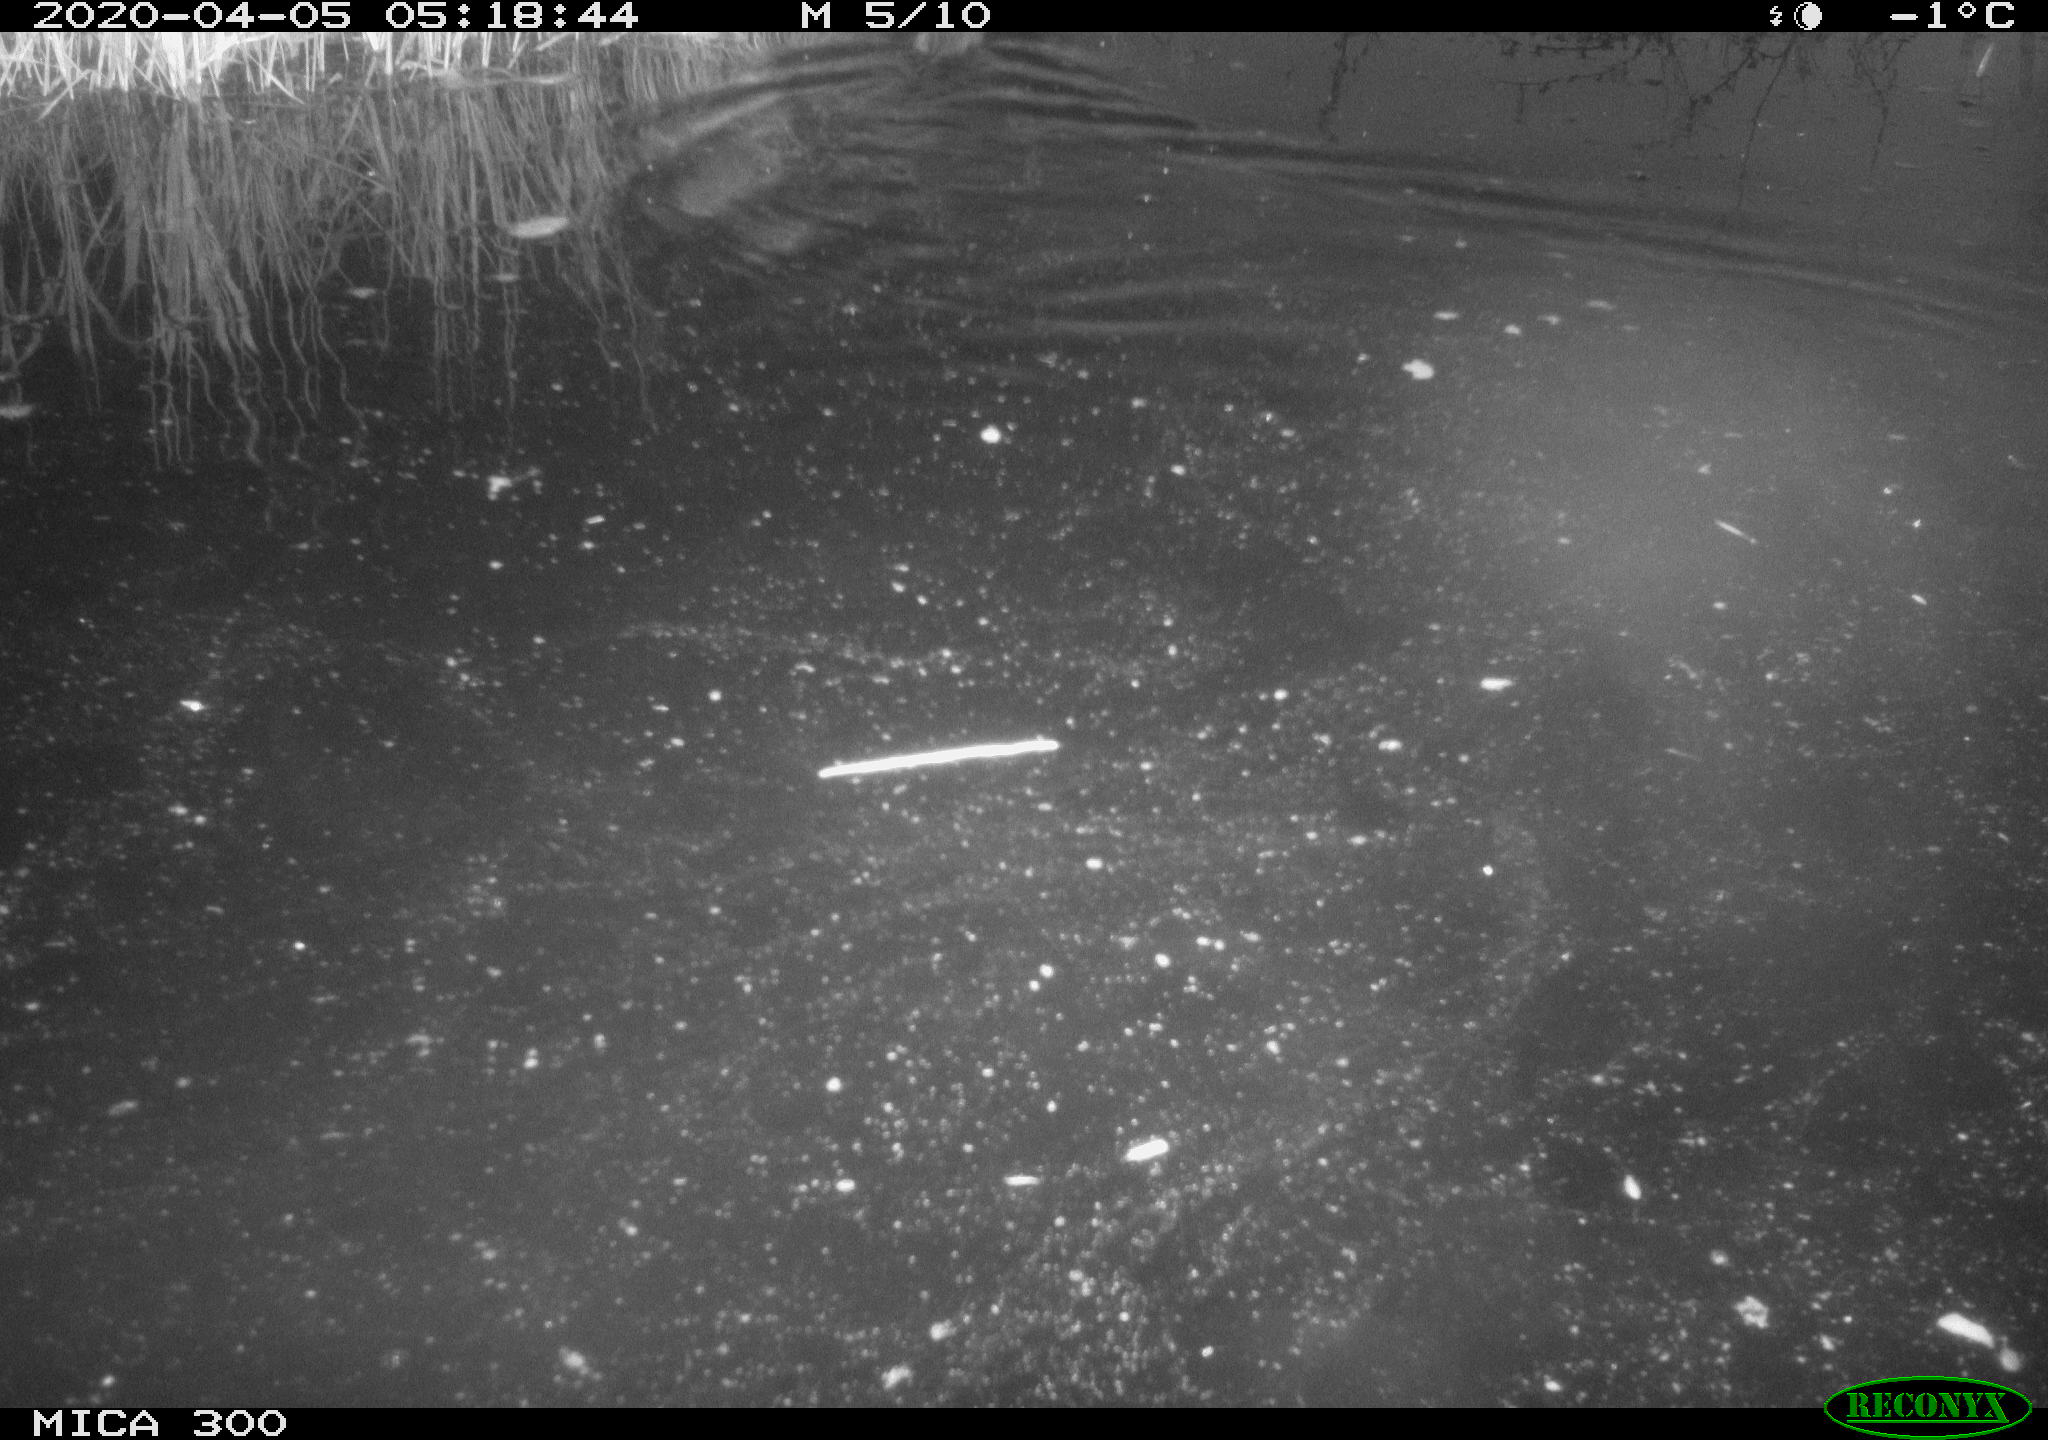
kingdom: Animalia
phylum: Chordata
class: Mammalia
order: Rodentia
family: Muridae
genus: Rattus
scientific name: Rattus norvegicus
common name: Brown rat
